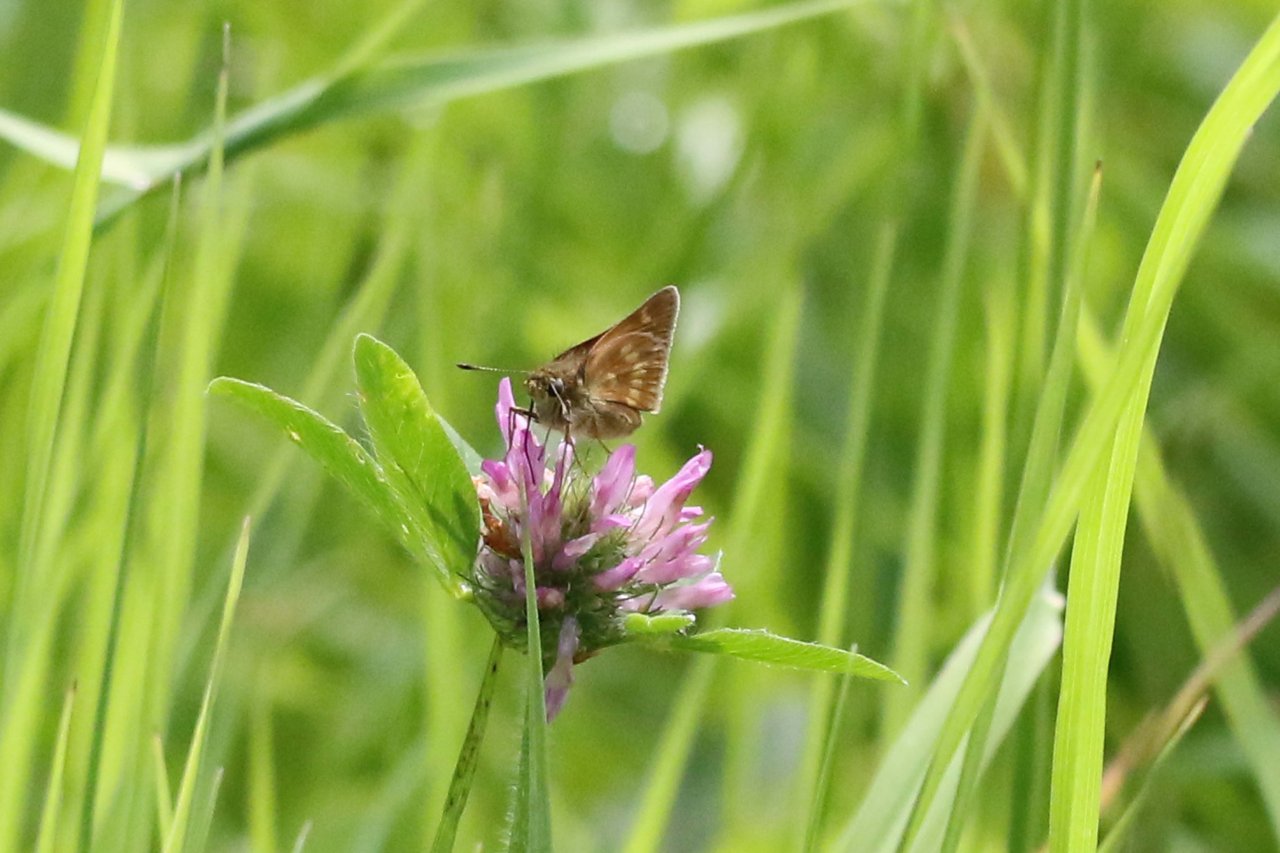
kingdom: Animalia
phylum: Arthropoda
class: Insecta
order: Lepidoptera
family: Hesperiidae
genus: Polites
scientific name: Polites
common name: Long Dash Skipper
